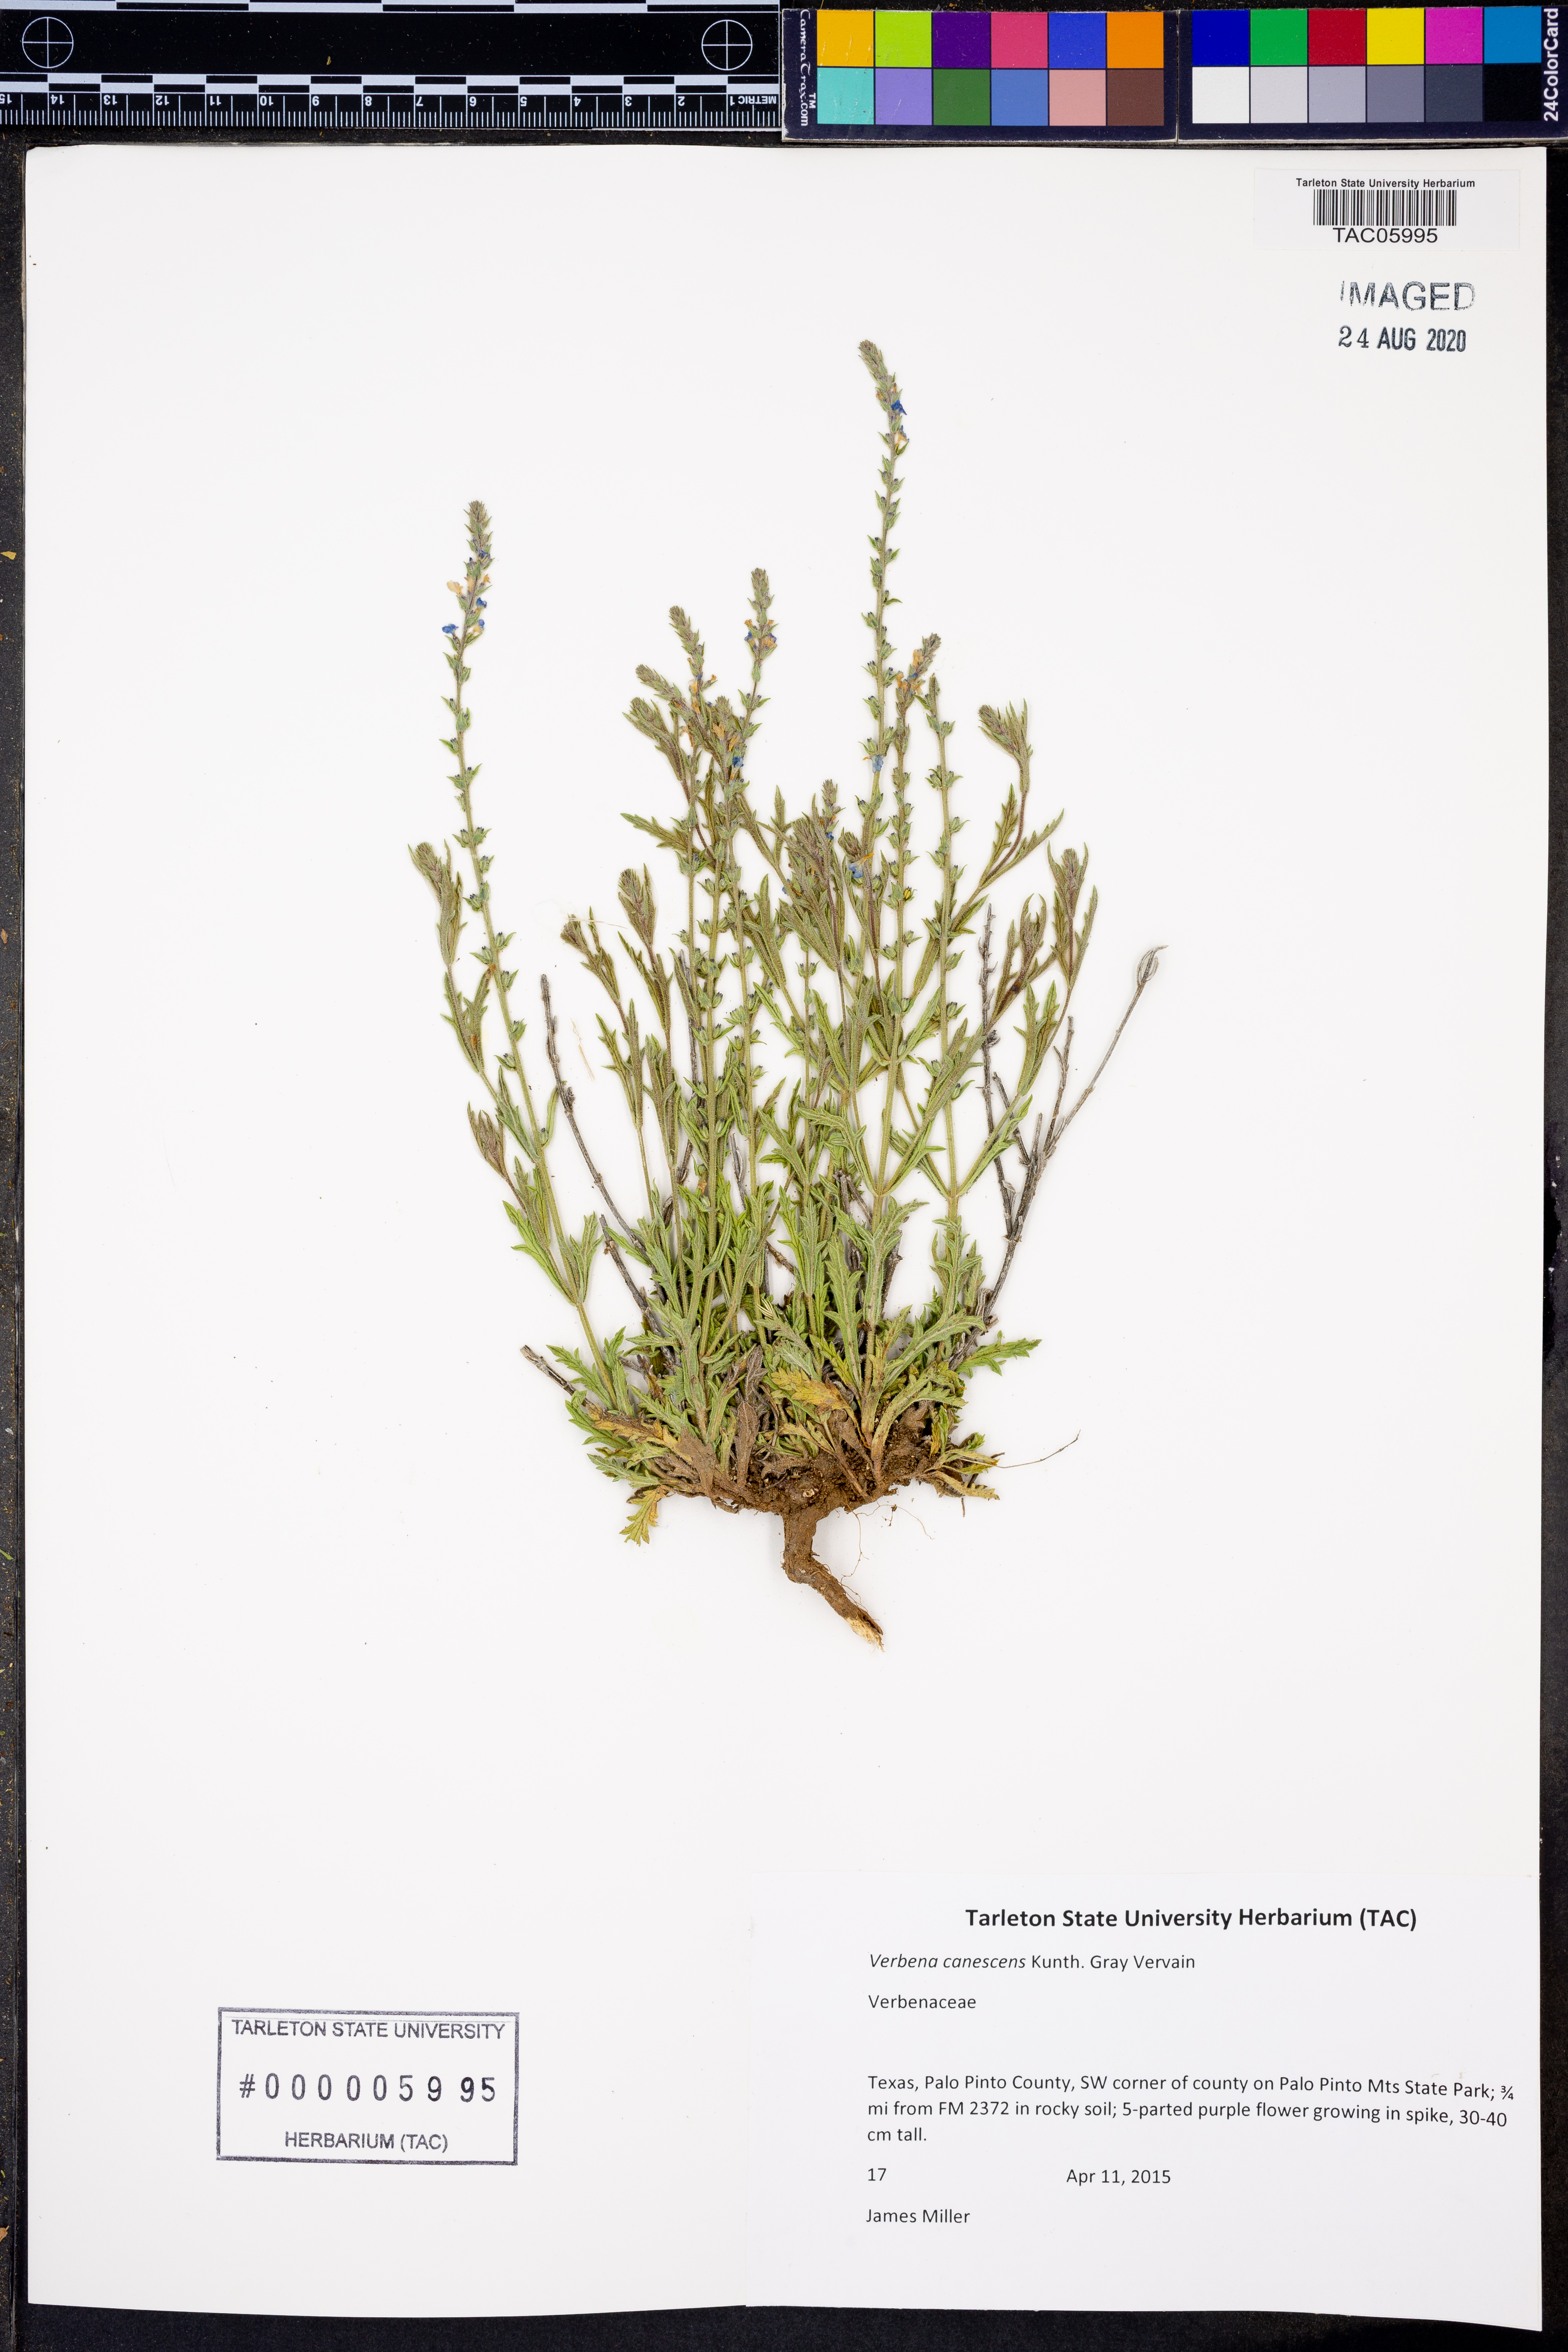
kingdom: Plantae
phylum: Tracheophyta
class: Magnoliopsida
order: Lamiales
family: Verbenaceae
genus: Verbena
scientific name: Verbena canescens
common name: Gray vervain
